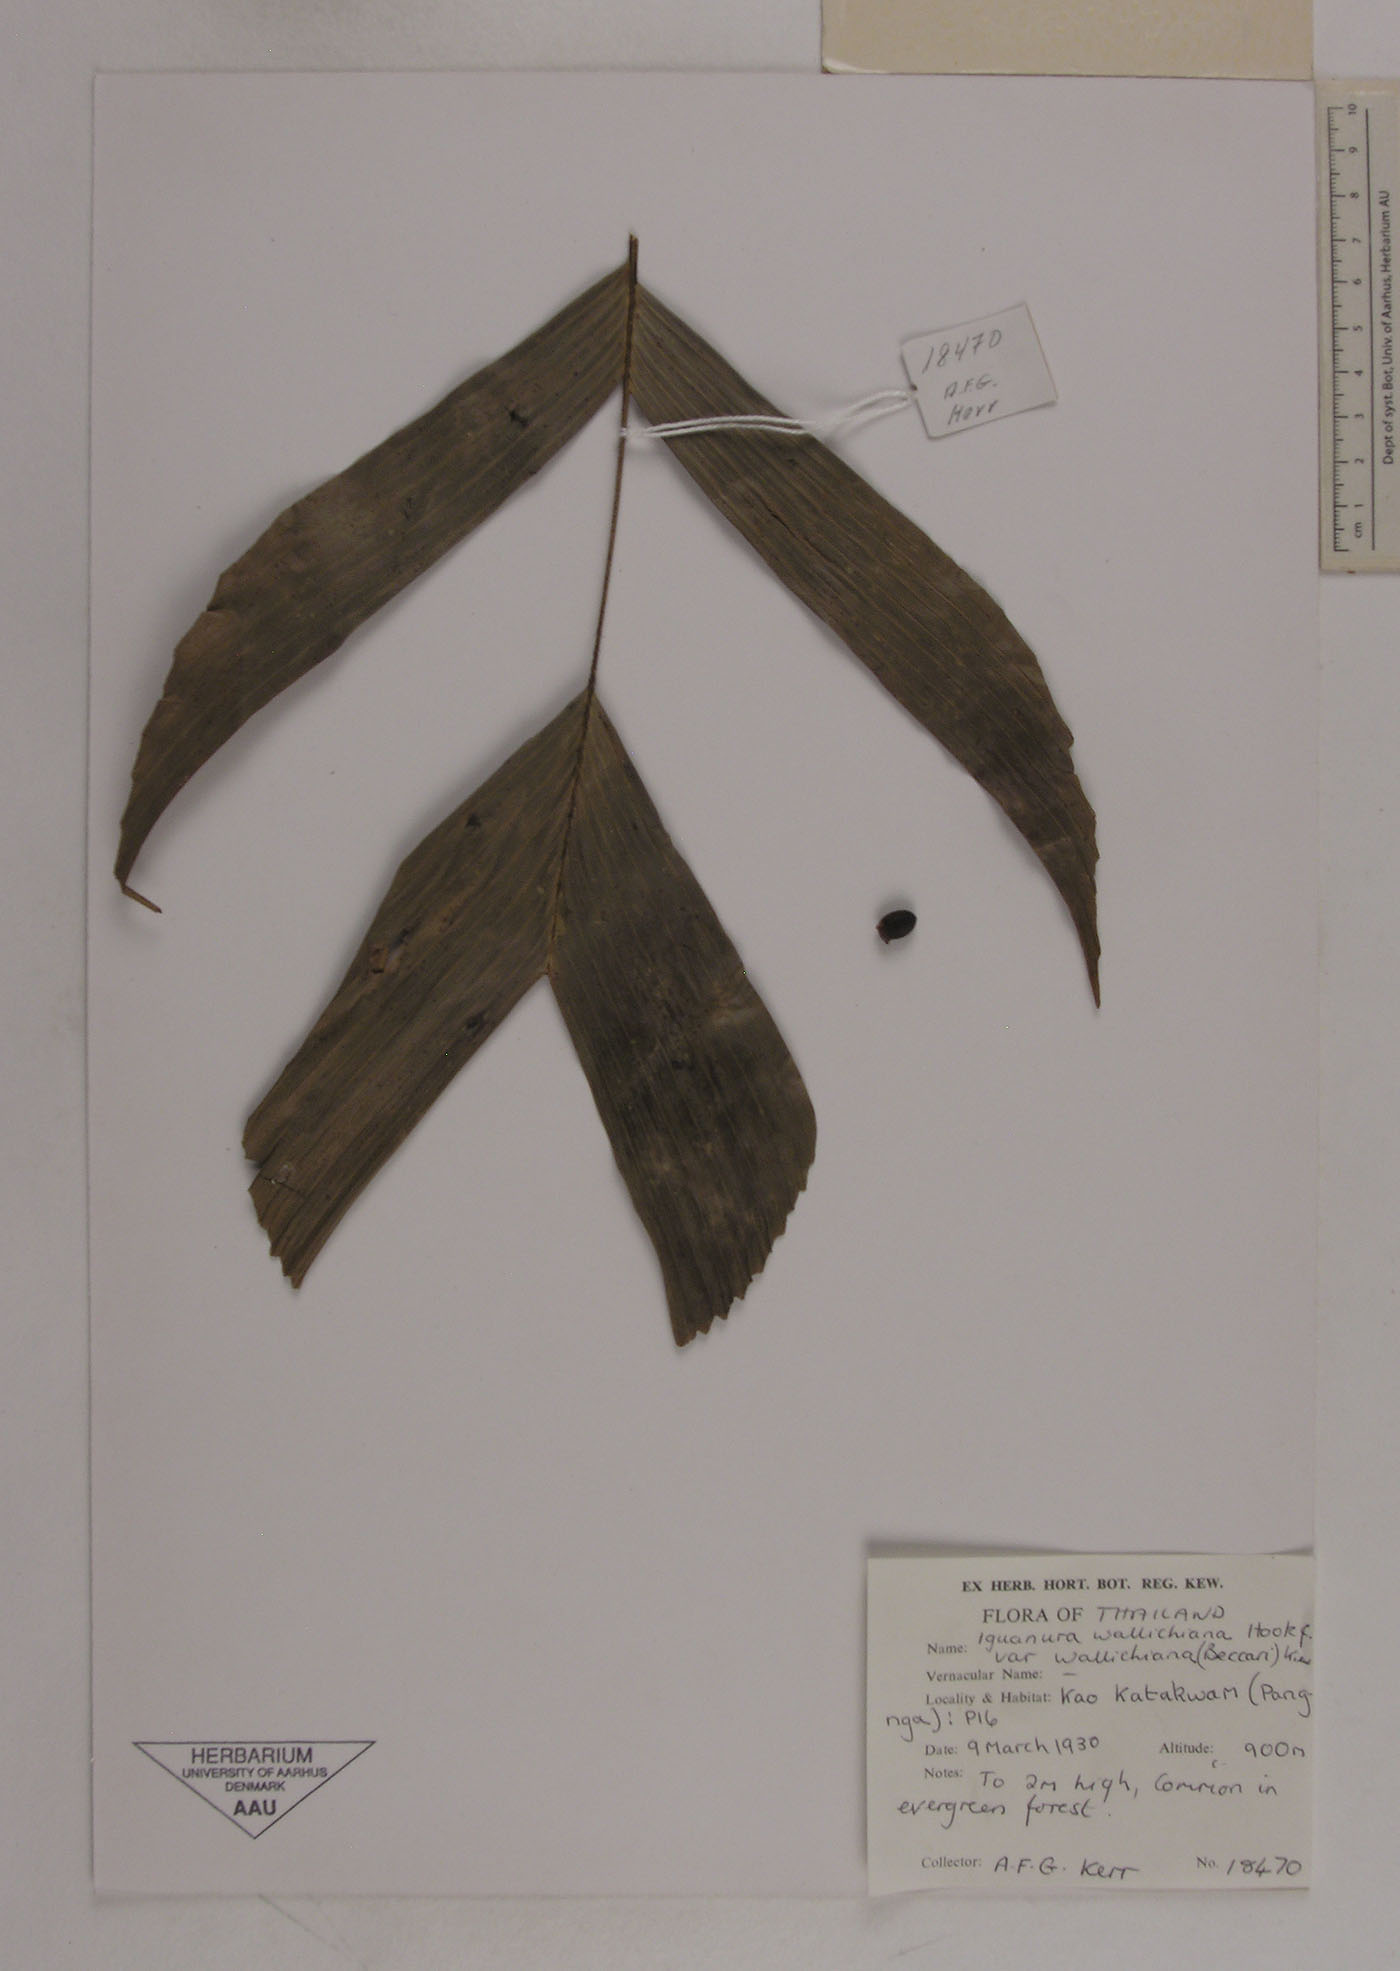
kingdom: Plantae
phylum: Tracheophyta
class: Liliopsida
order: Arecales
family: Arecaceae
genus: Iguanura
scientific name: Iguanura wallichiana
